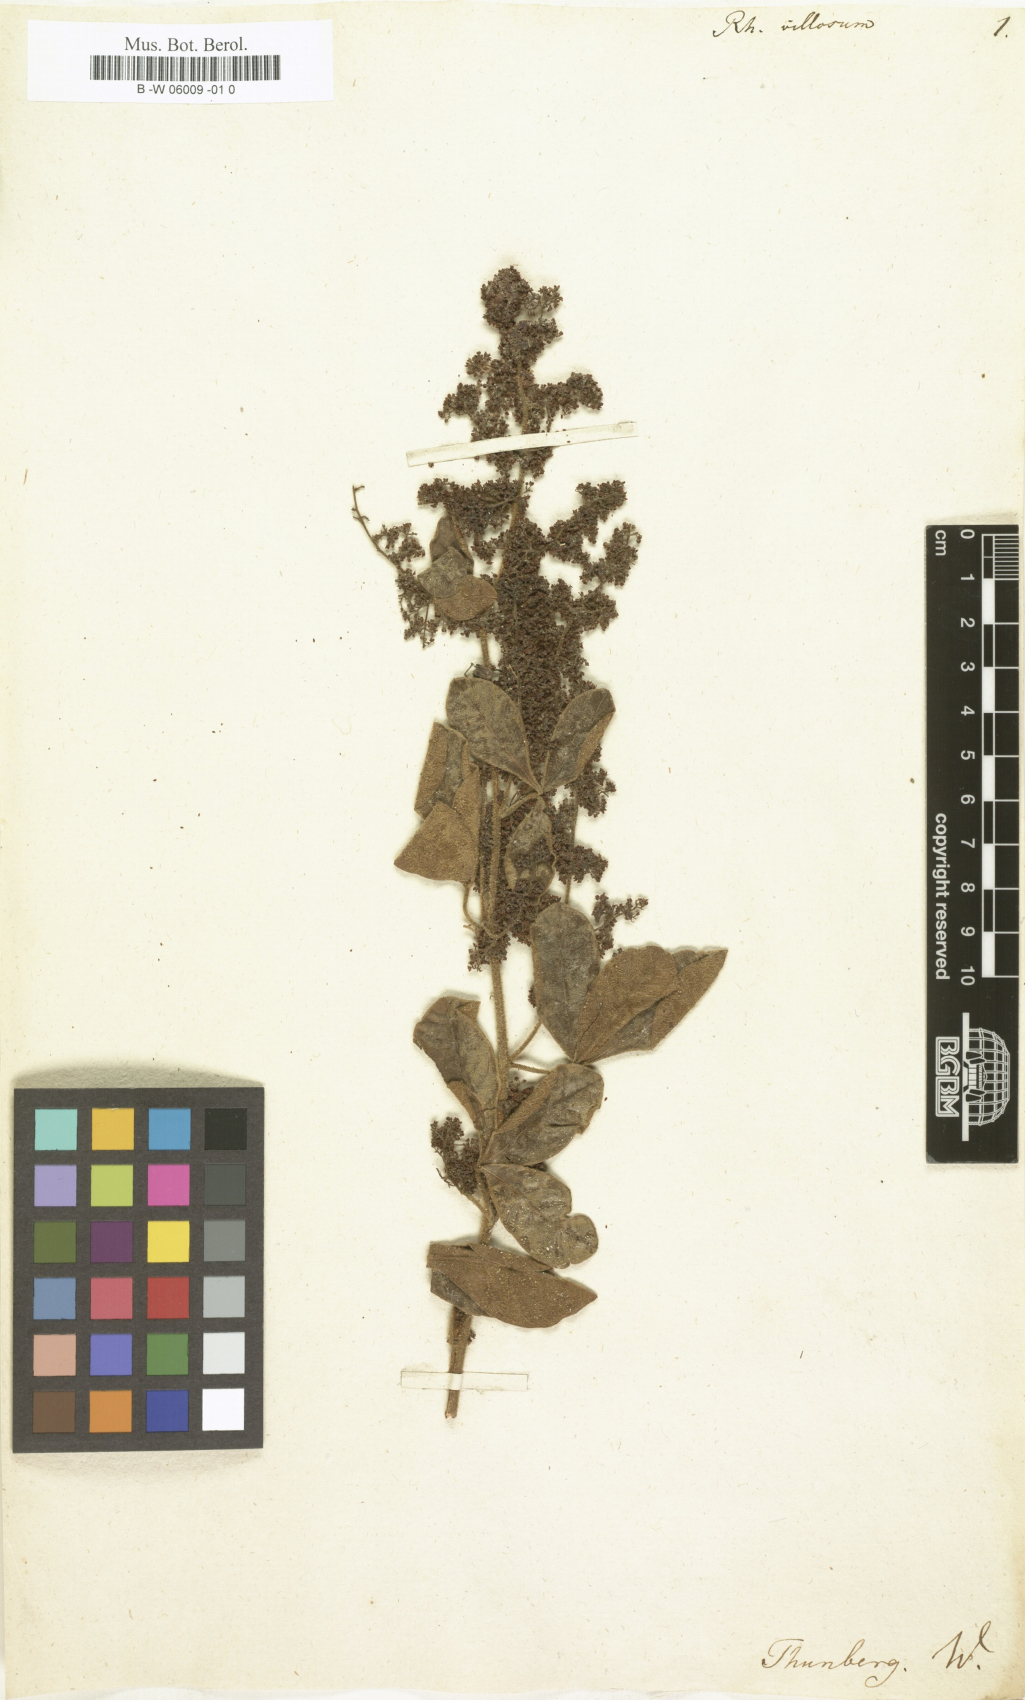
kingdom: Plantae
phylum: Tracheophyta
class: Magnoliopsida
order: Sapindales
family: Anacardiaceae
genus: Searsia
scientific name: Searsia
